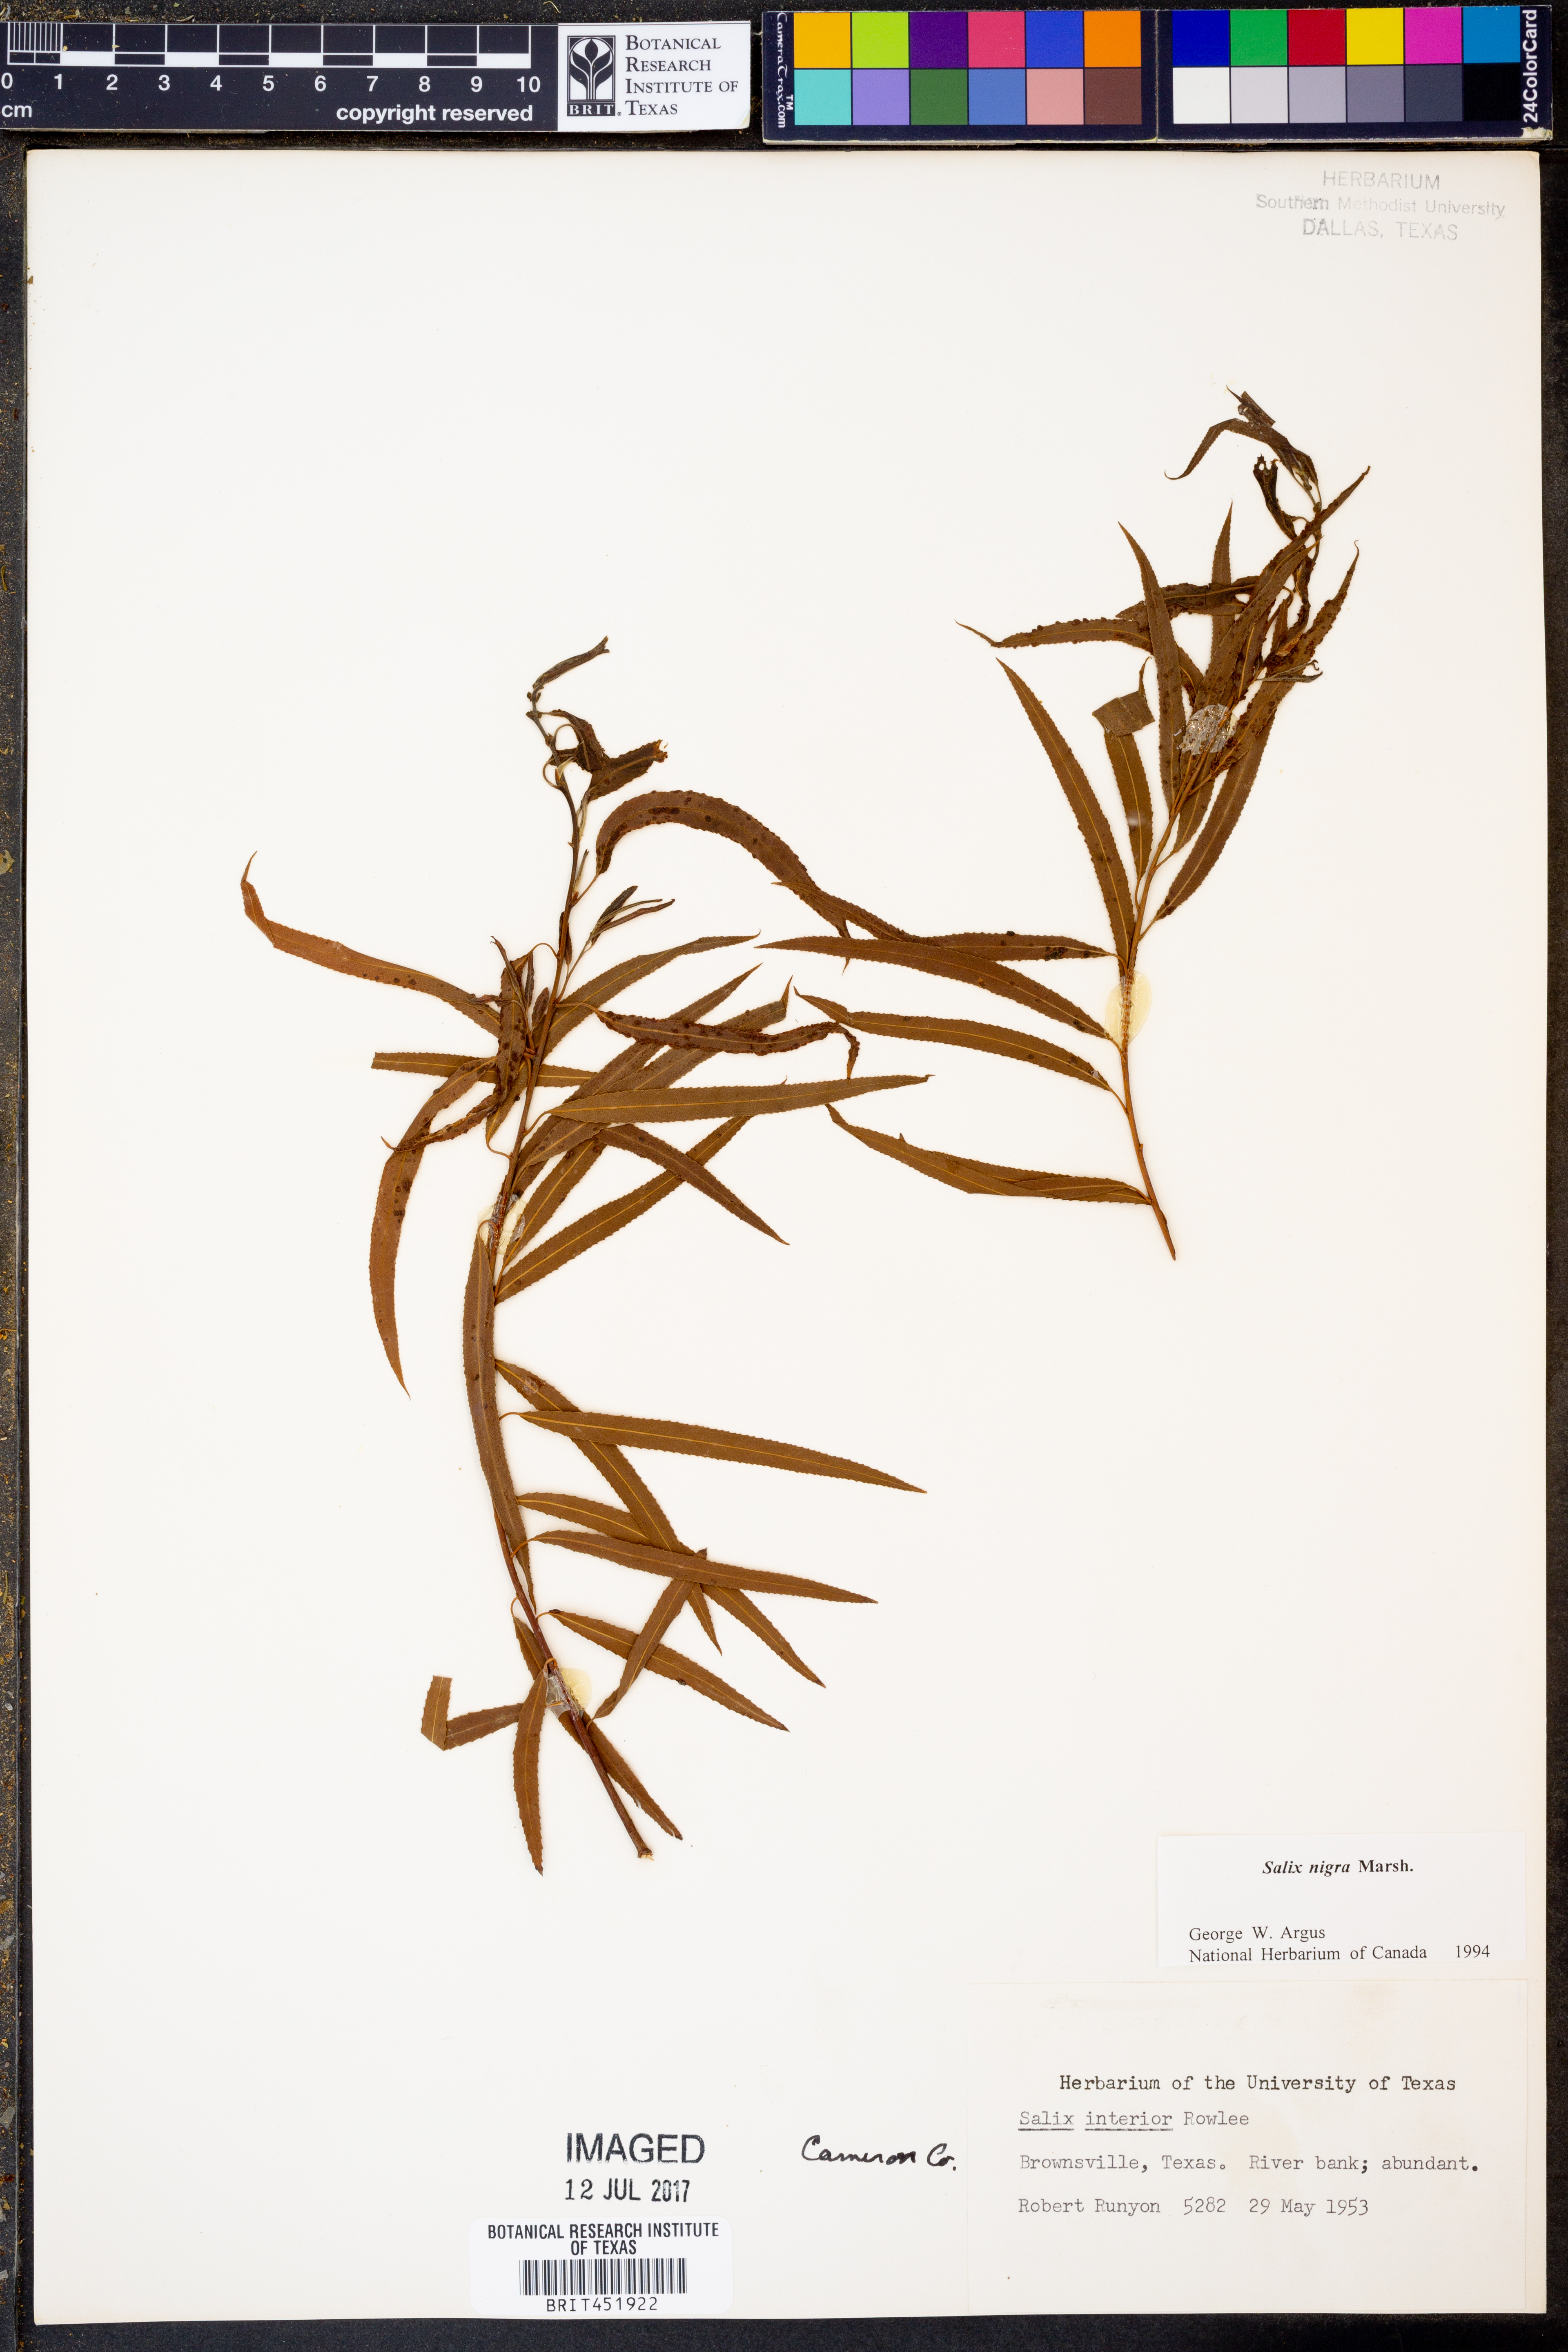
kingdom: Plantae
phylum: Tracheophyta
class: Magnoliopsida
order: Malpighiales
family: Salicaceae
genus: Salix
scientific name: Salix nigra
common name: Black willow
